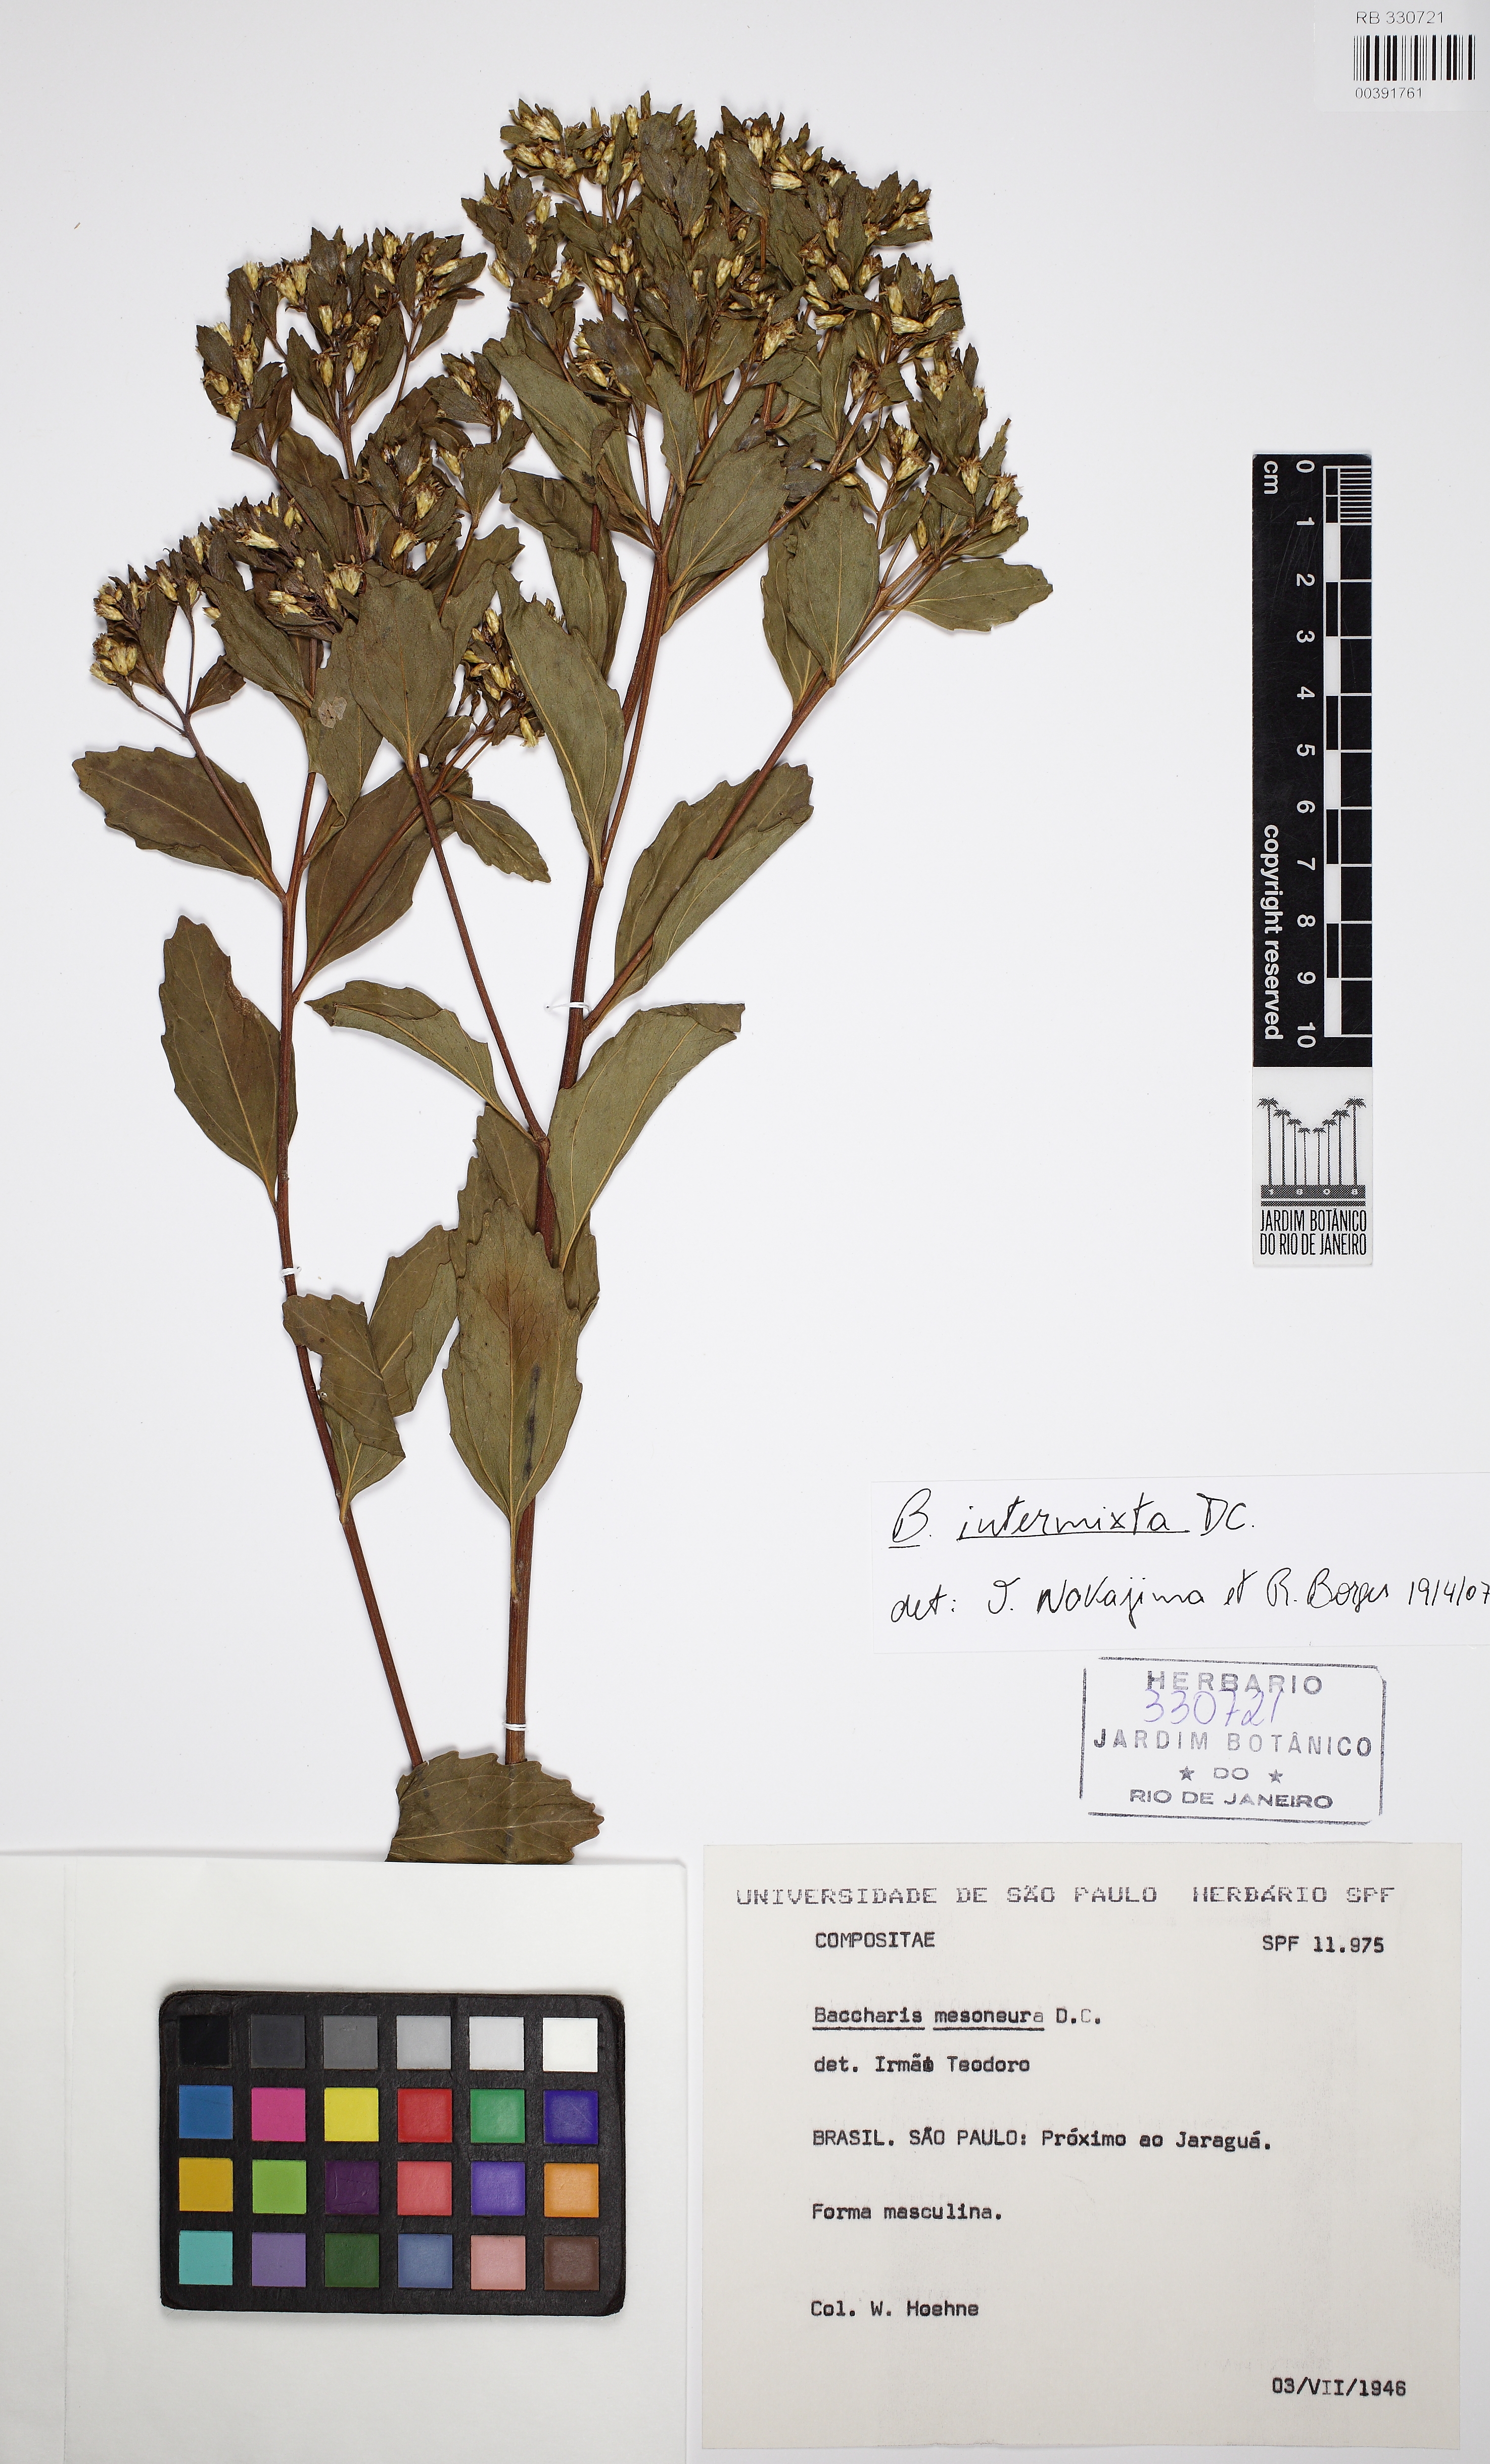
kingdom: Plantae
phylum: Tracheophyta
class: Magnoliopsida
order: Asterales
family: Asteraceae
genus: Baccharis
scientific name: Baccharis intermixta
